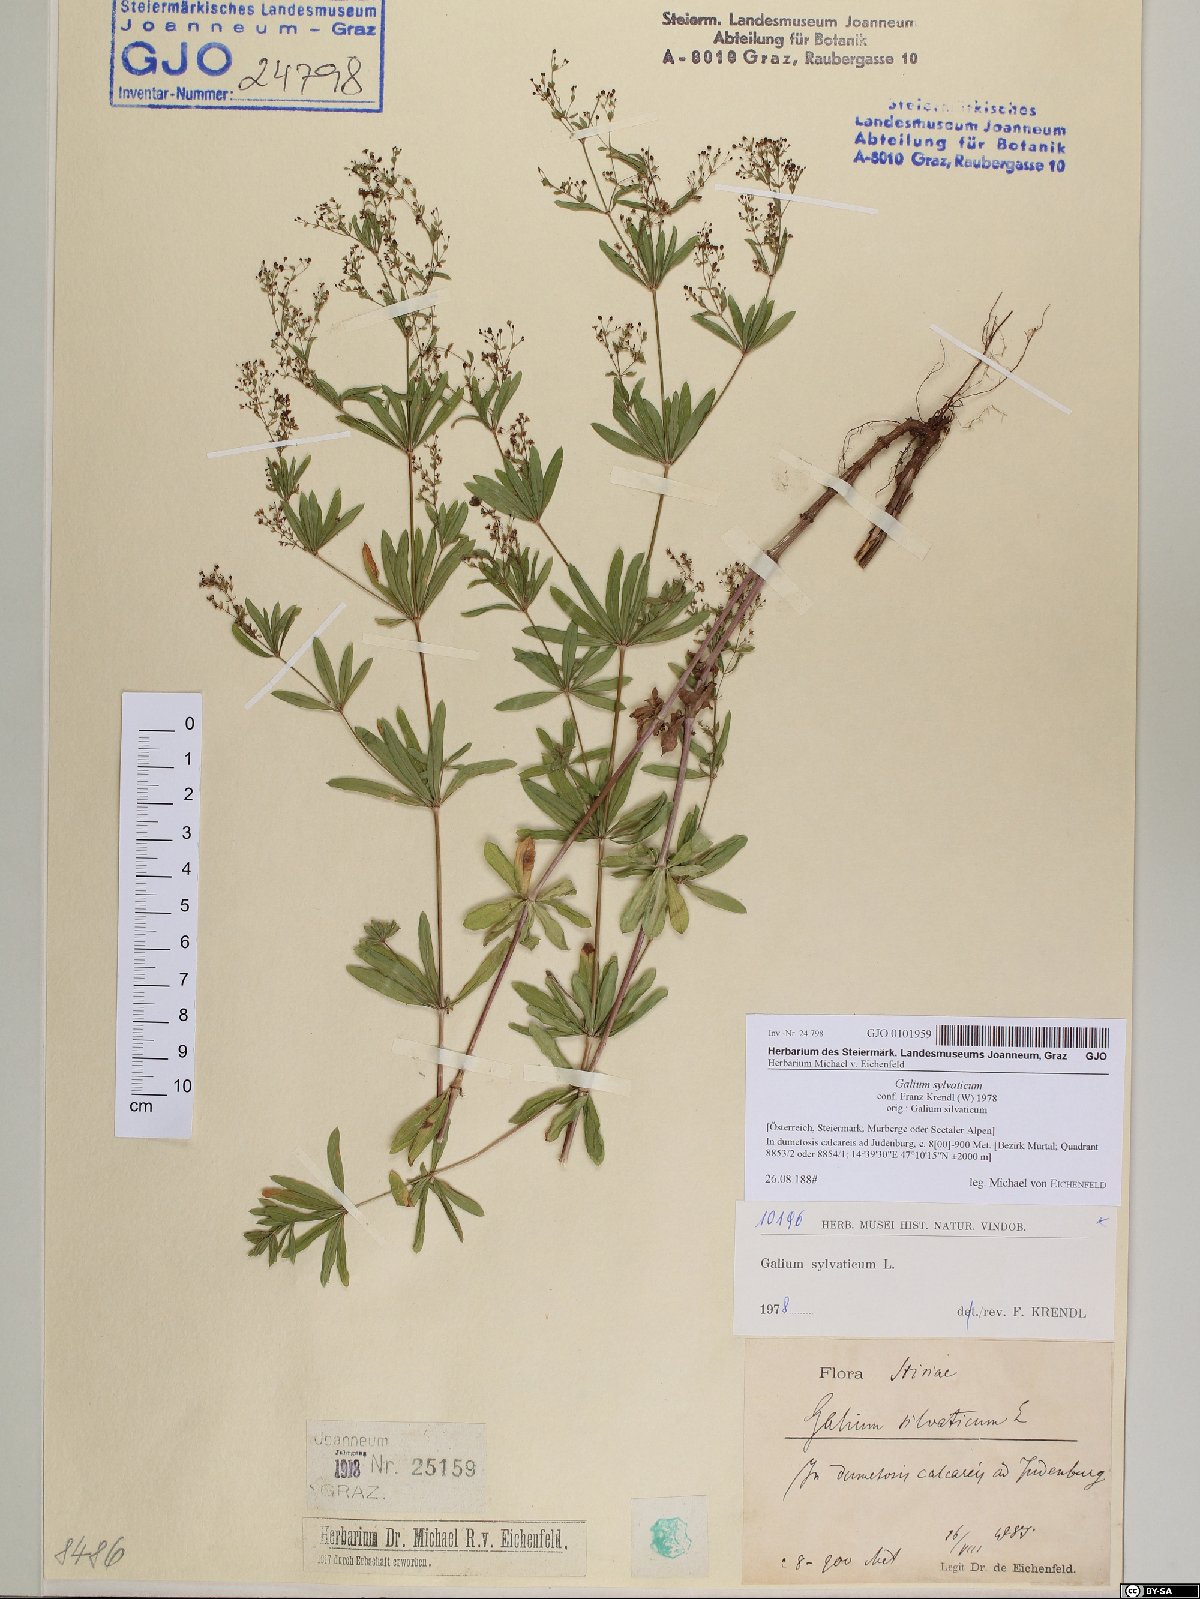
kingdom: Plantae
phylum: Tracheophyta
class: Magnoliopsida
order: Gentianales
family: Rubiaceae
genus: Galium
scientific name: Galium sylvaticum
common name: Wood bedstraw
